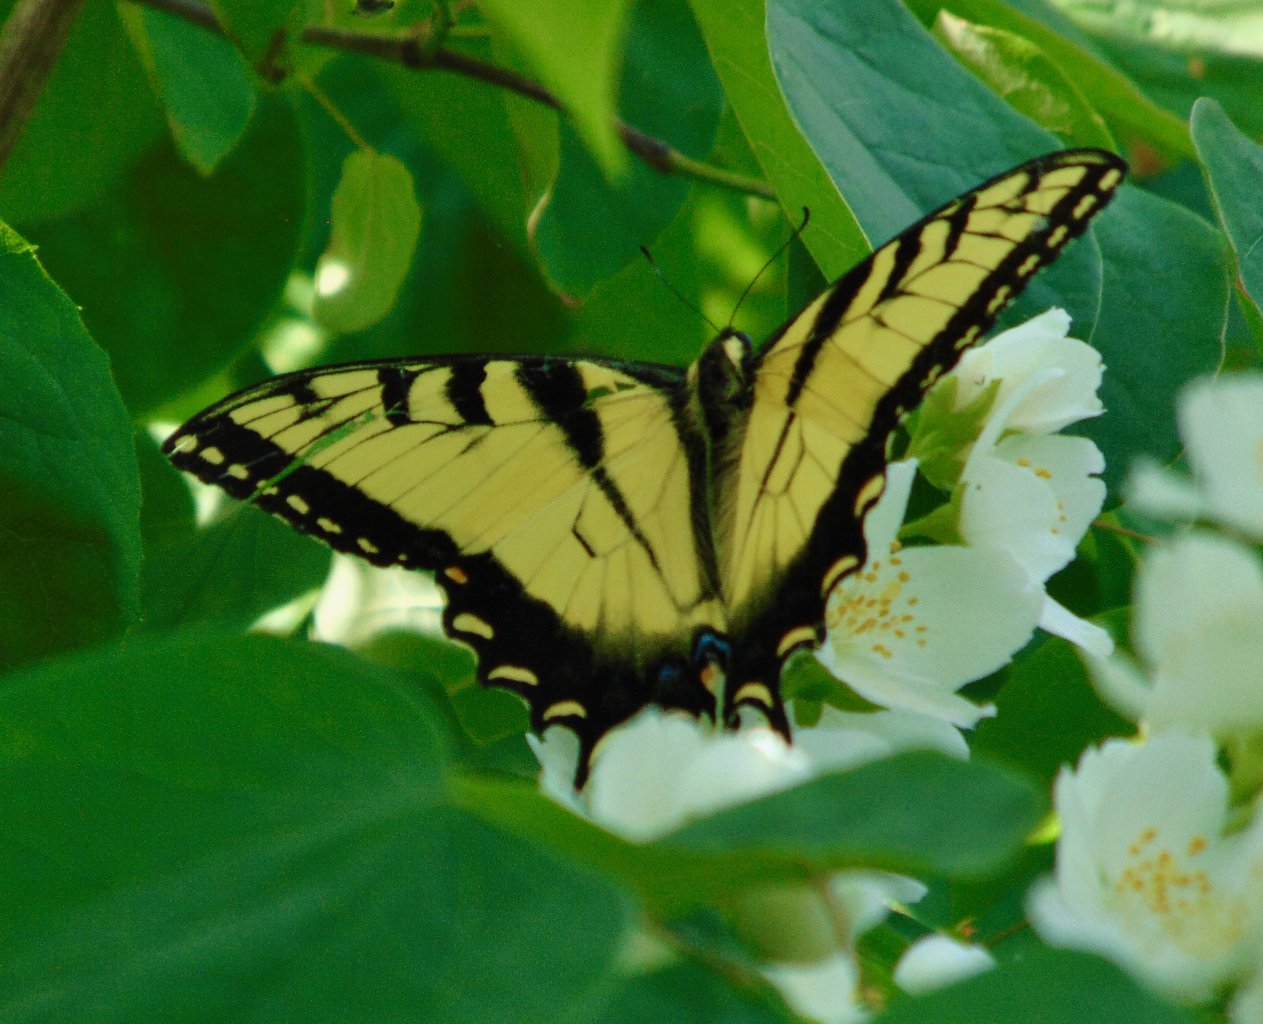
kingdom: Animalia
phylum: Arthropoda
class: Insecta
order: Lepidoptera
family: Papilionidae
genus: Pterourus
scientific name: Pterourus glaucus
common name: Eastern Tiger Swallowtail
